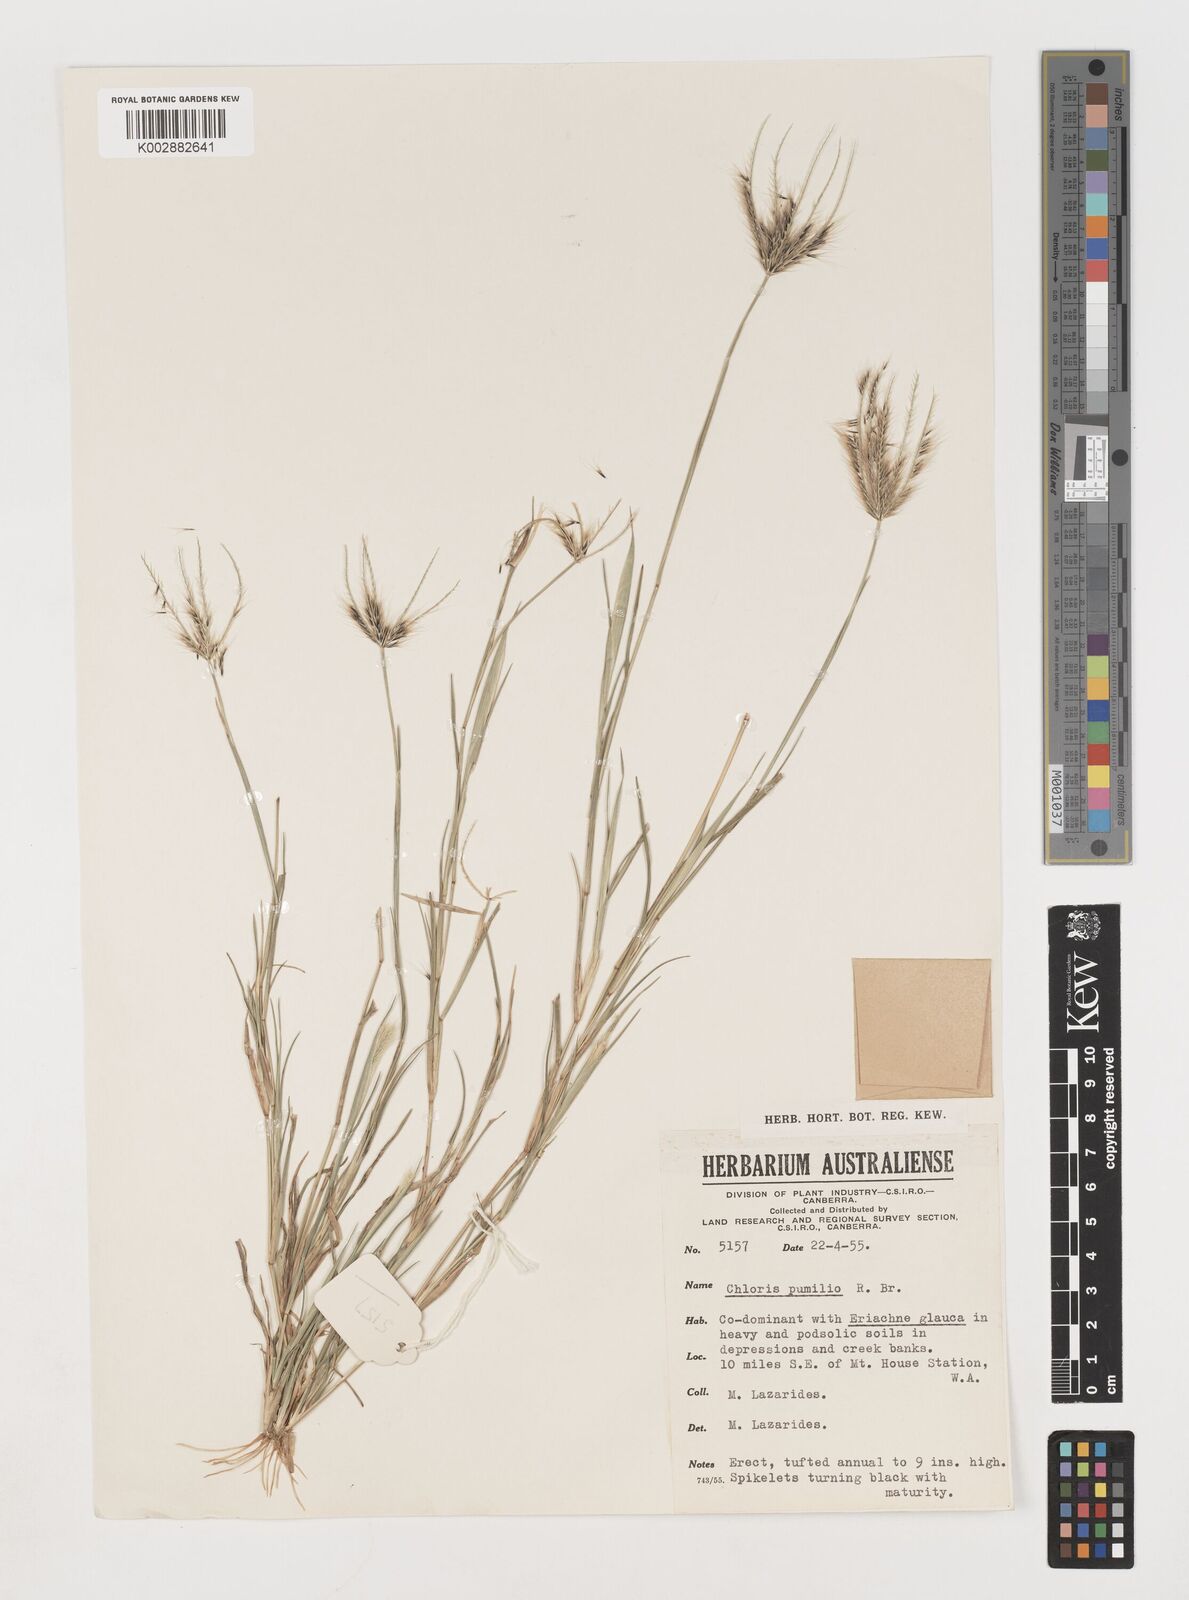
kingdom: Plantae
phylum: Tracheophyta
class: Liliopsida
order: Poales
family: Poaceae
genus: Chloris
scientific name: Chloris lobata
